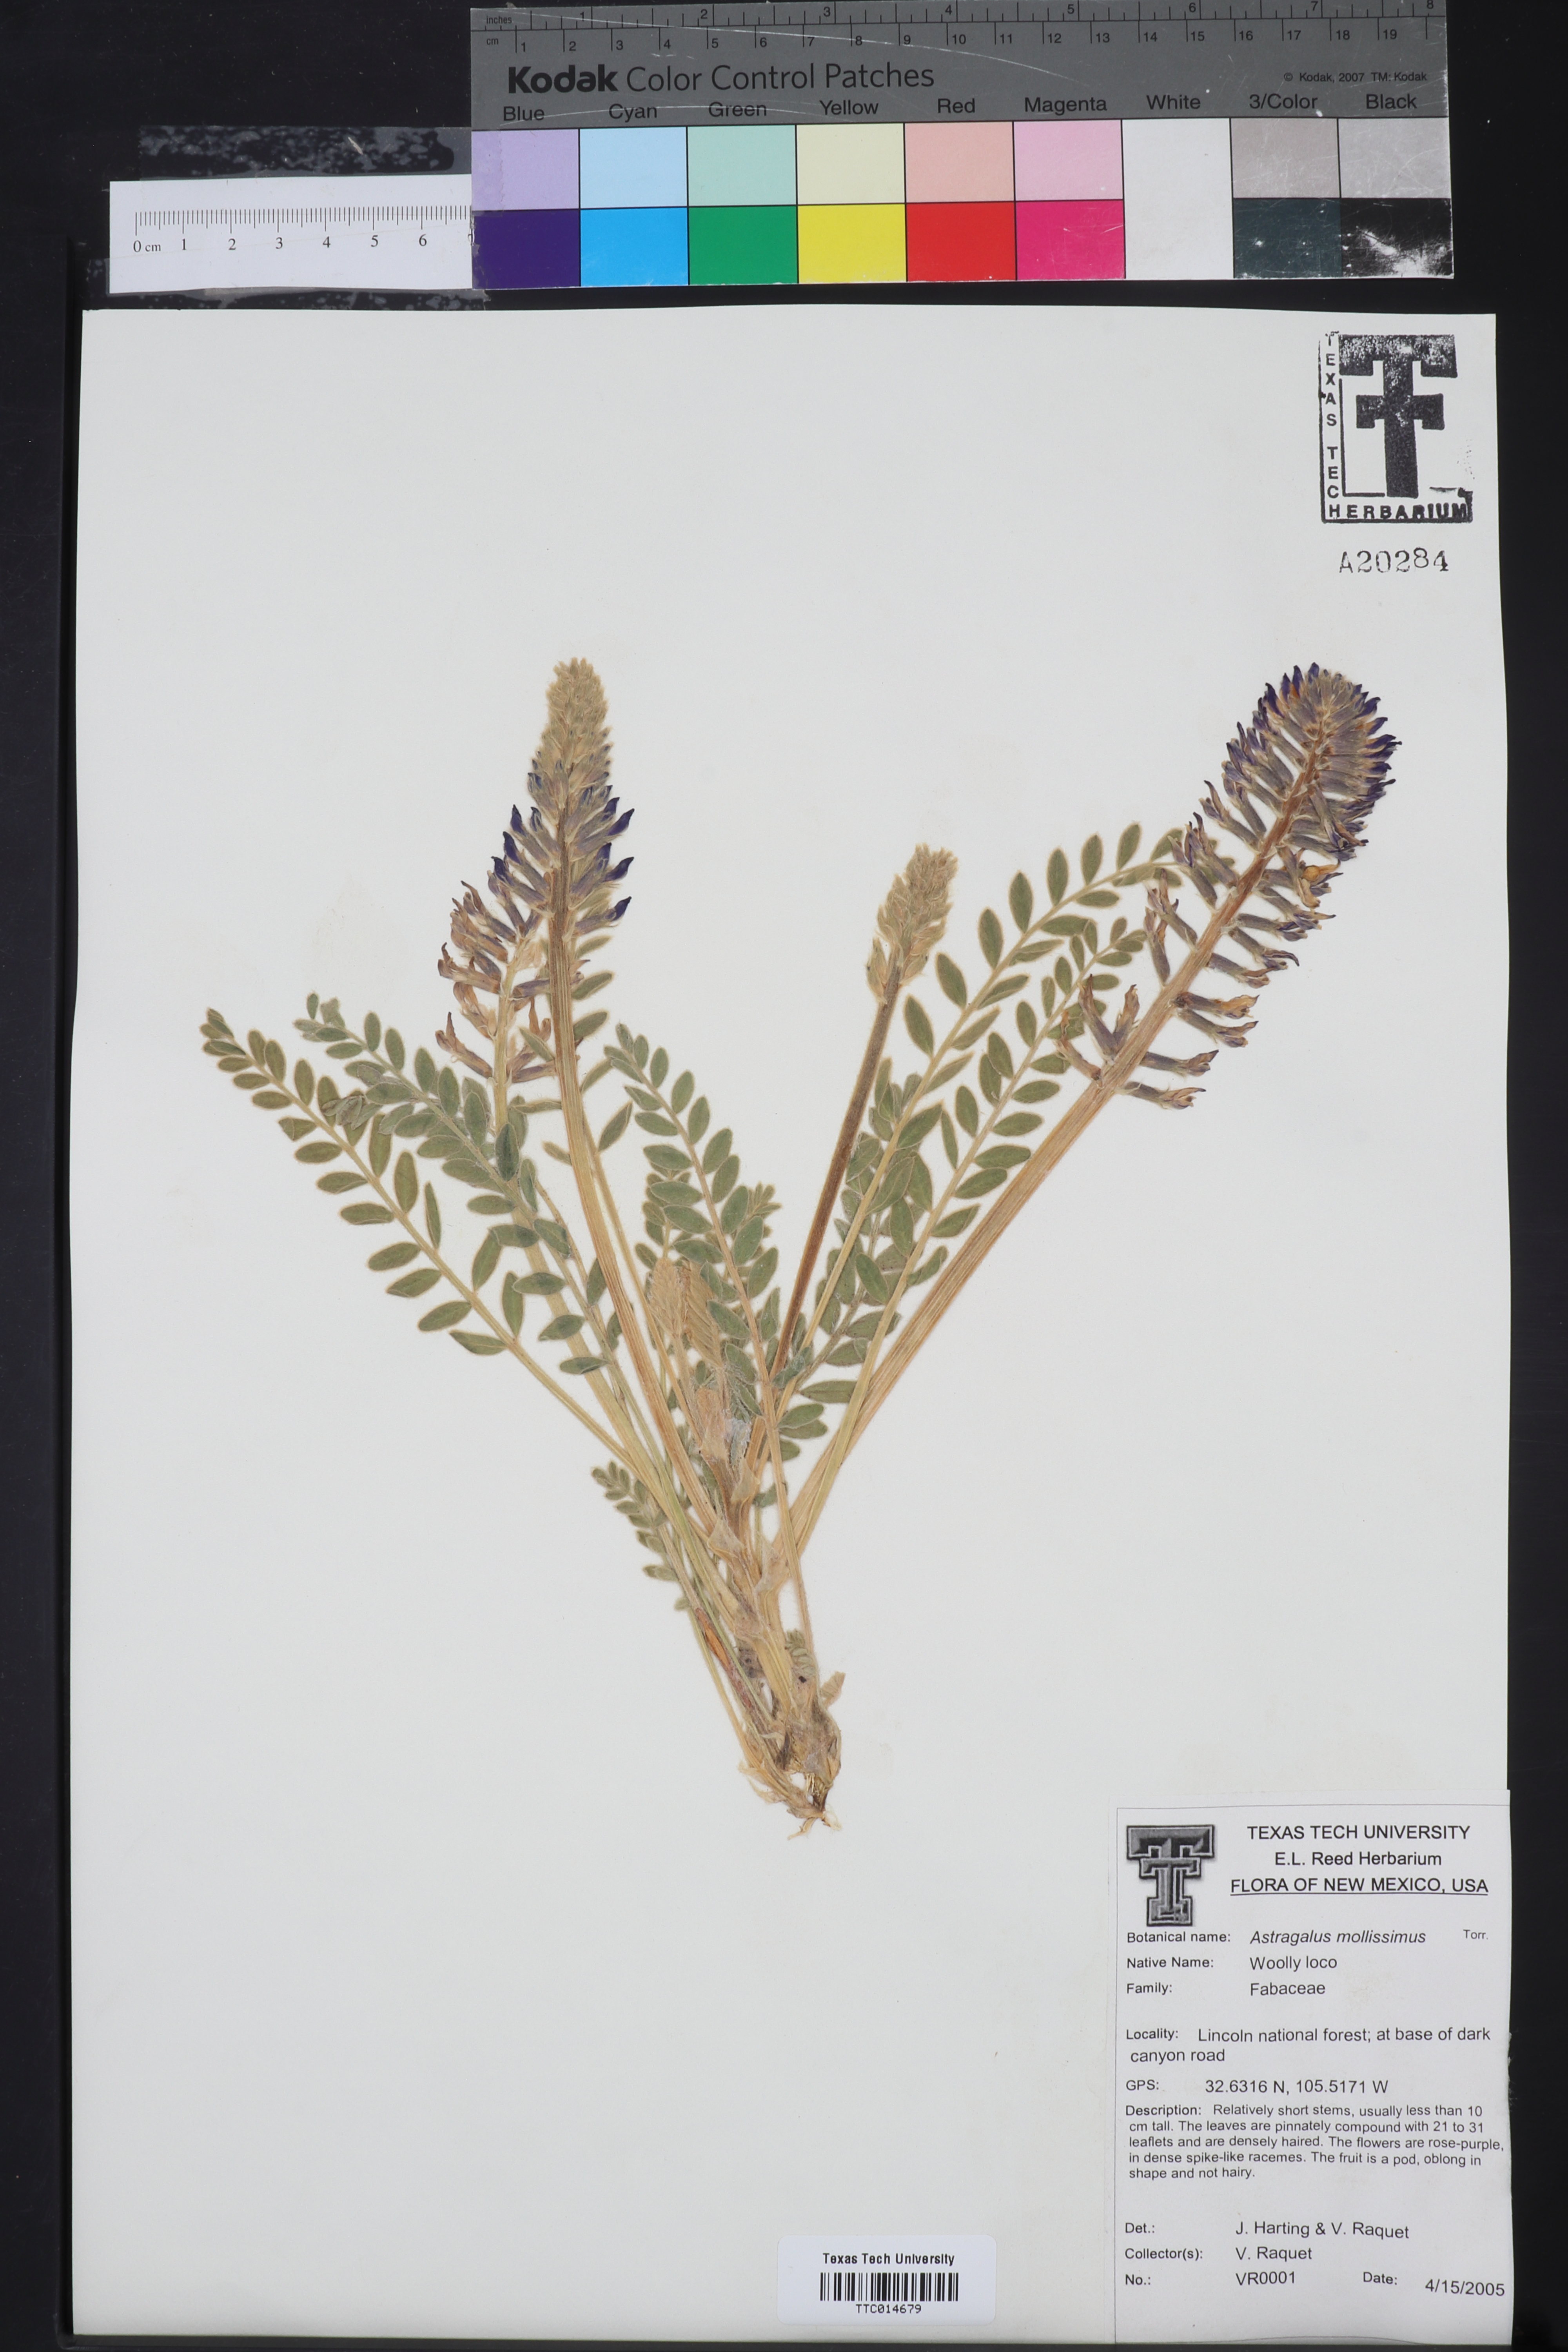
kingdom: Plantae
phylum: Tracheophyta
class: Magnoliopsida
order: Fabales
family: Fabaceae
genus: Astragalus
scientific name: Astragalus mollissimus
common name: Woolly locoweed
